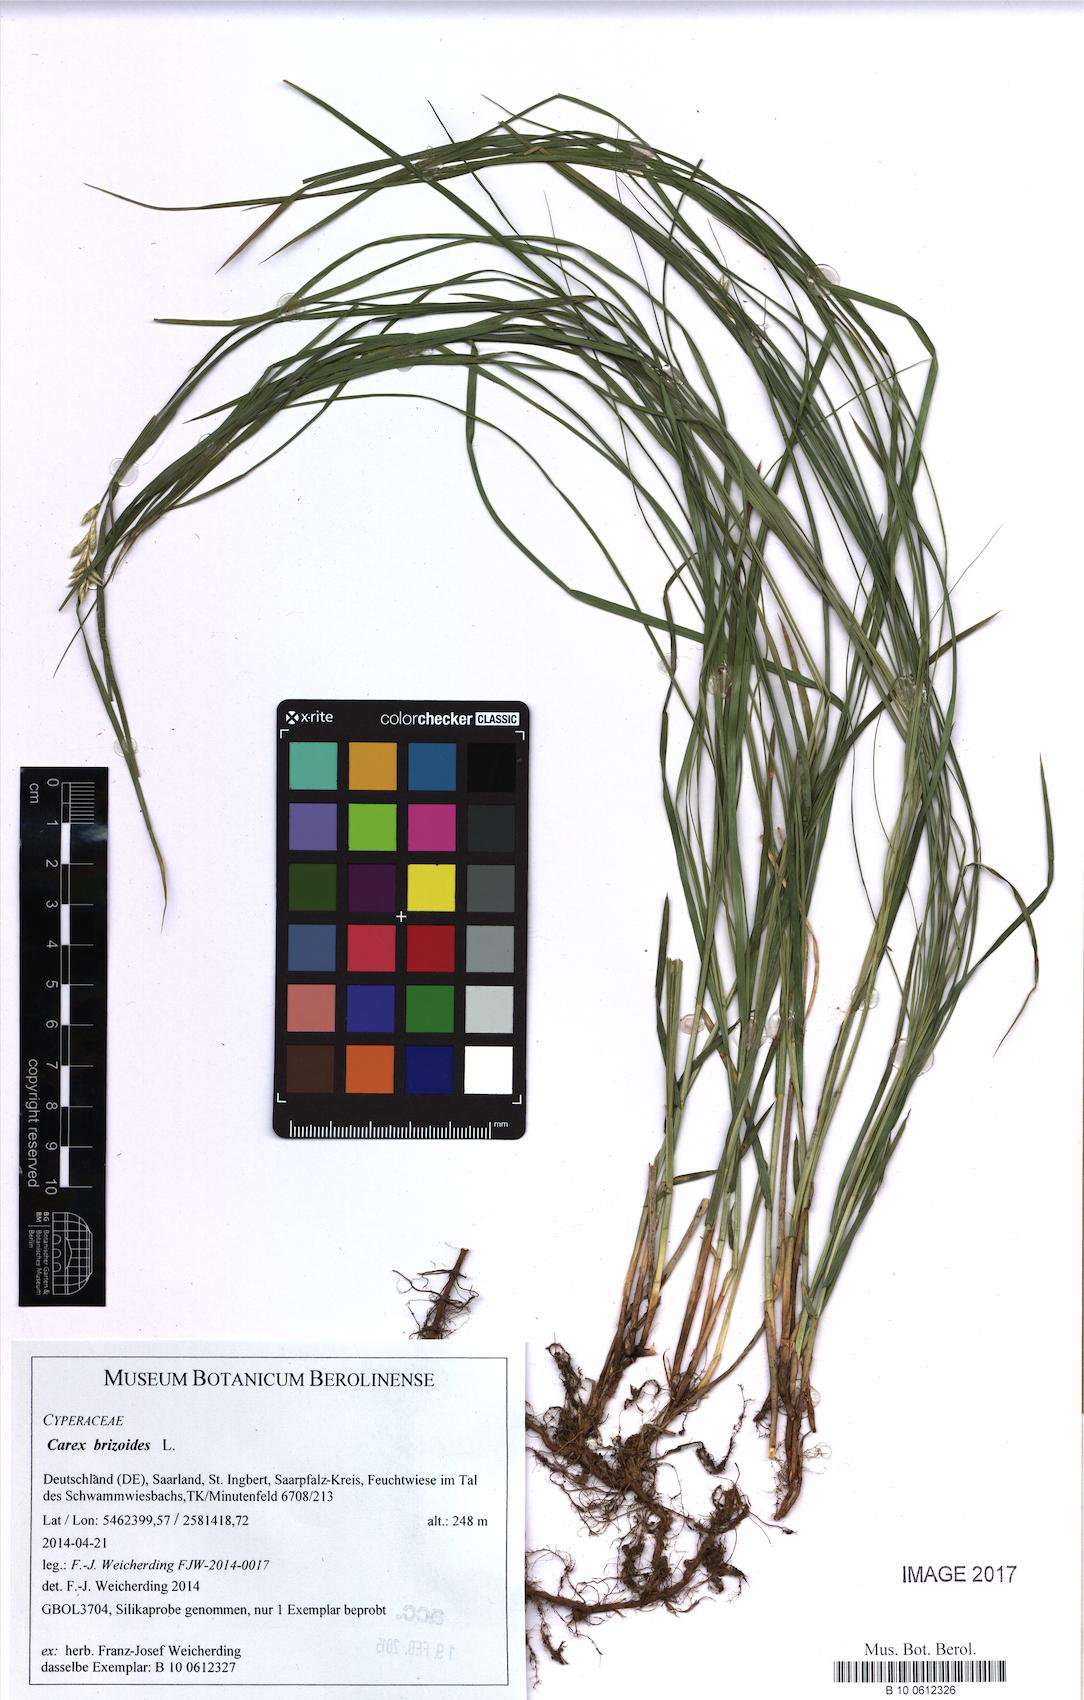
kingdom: Plantae
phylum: Tracheophyta
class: Liliopsida
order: Poales
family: Cyperaceae
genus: Carex
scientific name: Carex brizoides
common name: Quaking-grass sedge
